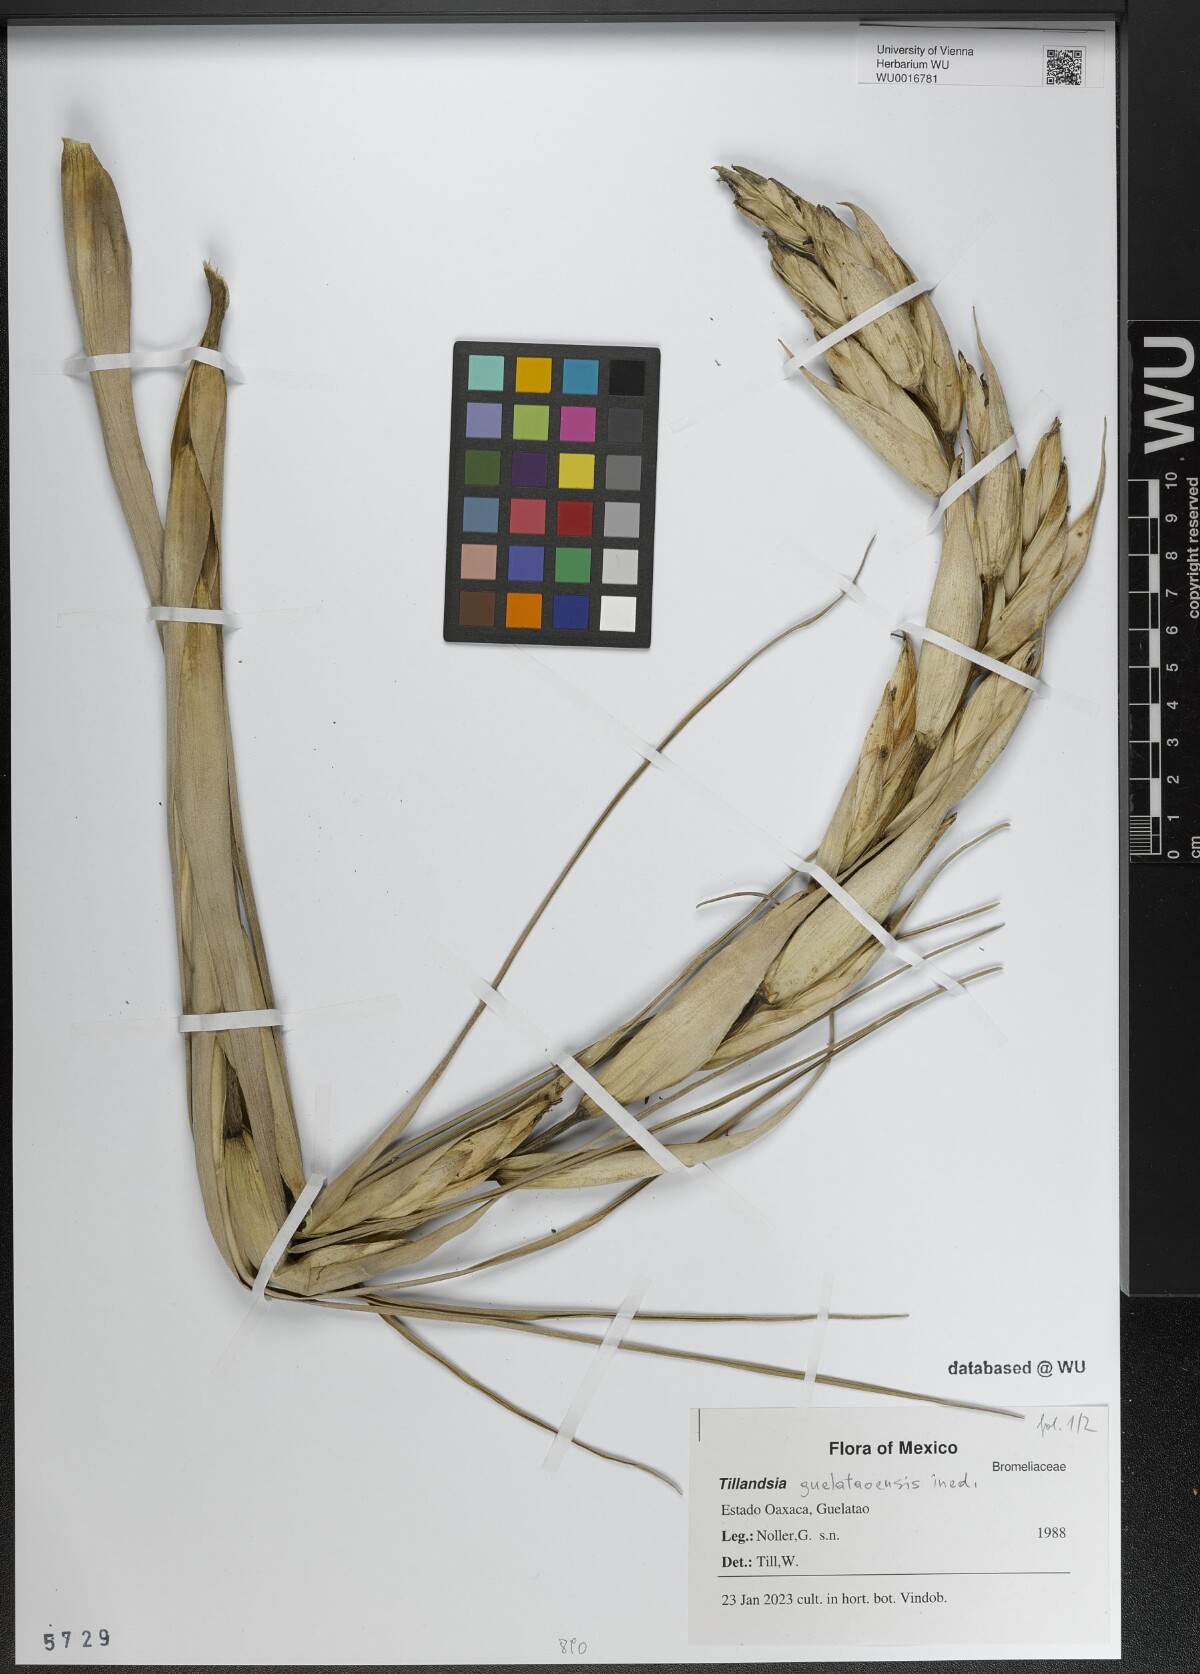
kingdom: Plantae
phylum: Tracheophyta
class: Liliopsida
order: Poales
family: Bromeliaceae
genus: Tillandsia
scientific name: Tillandsia
